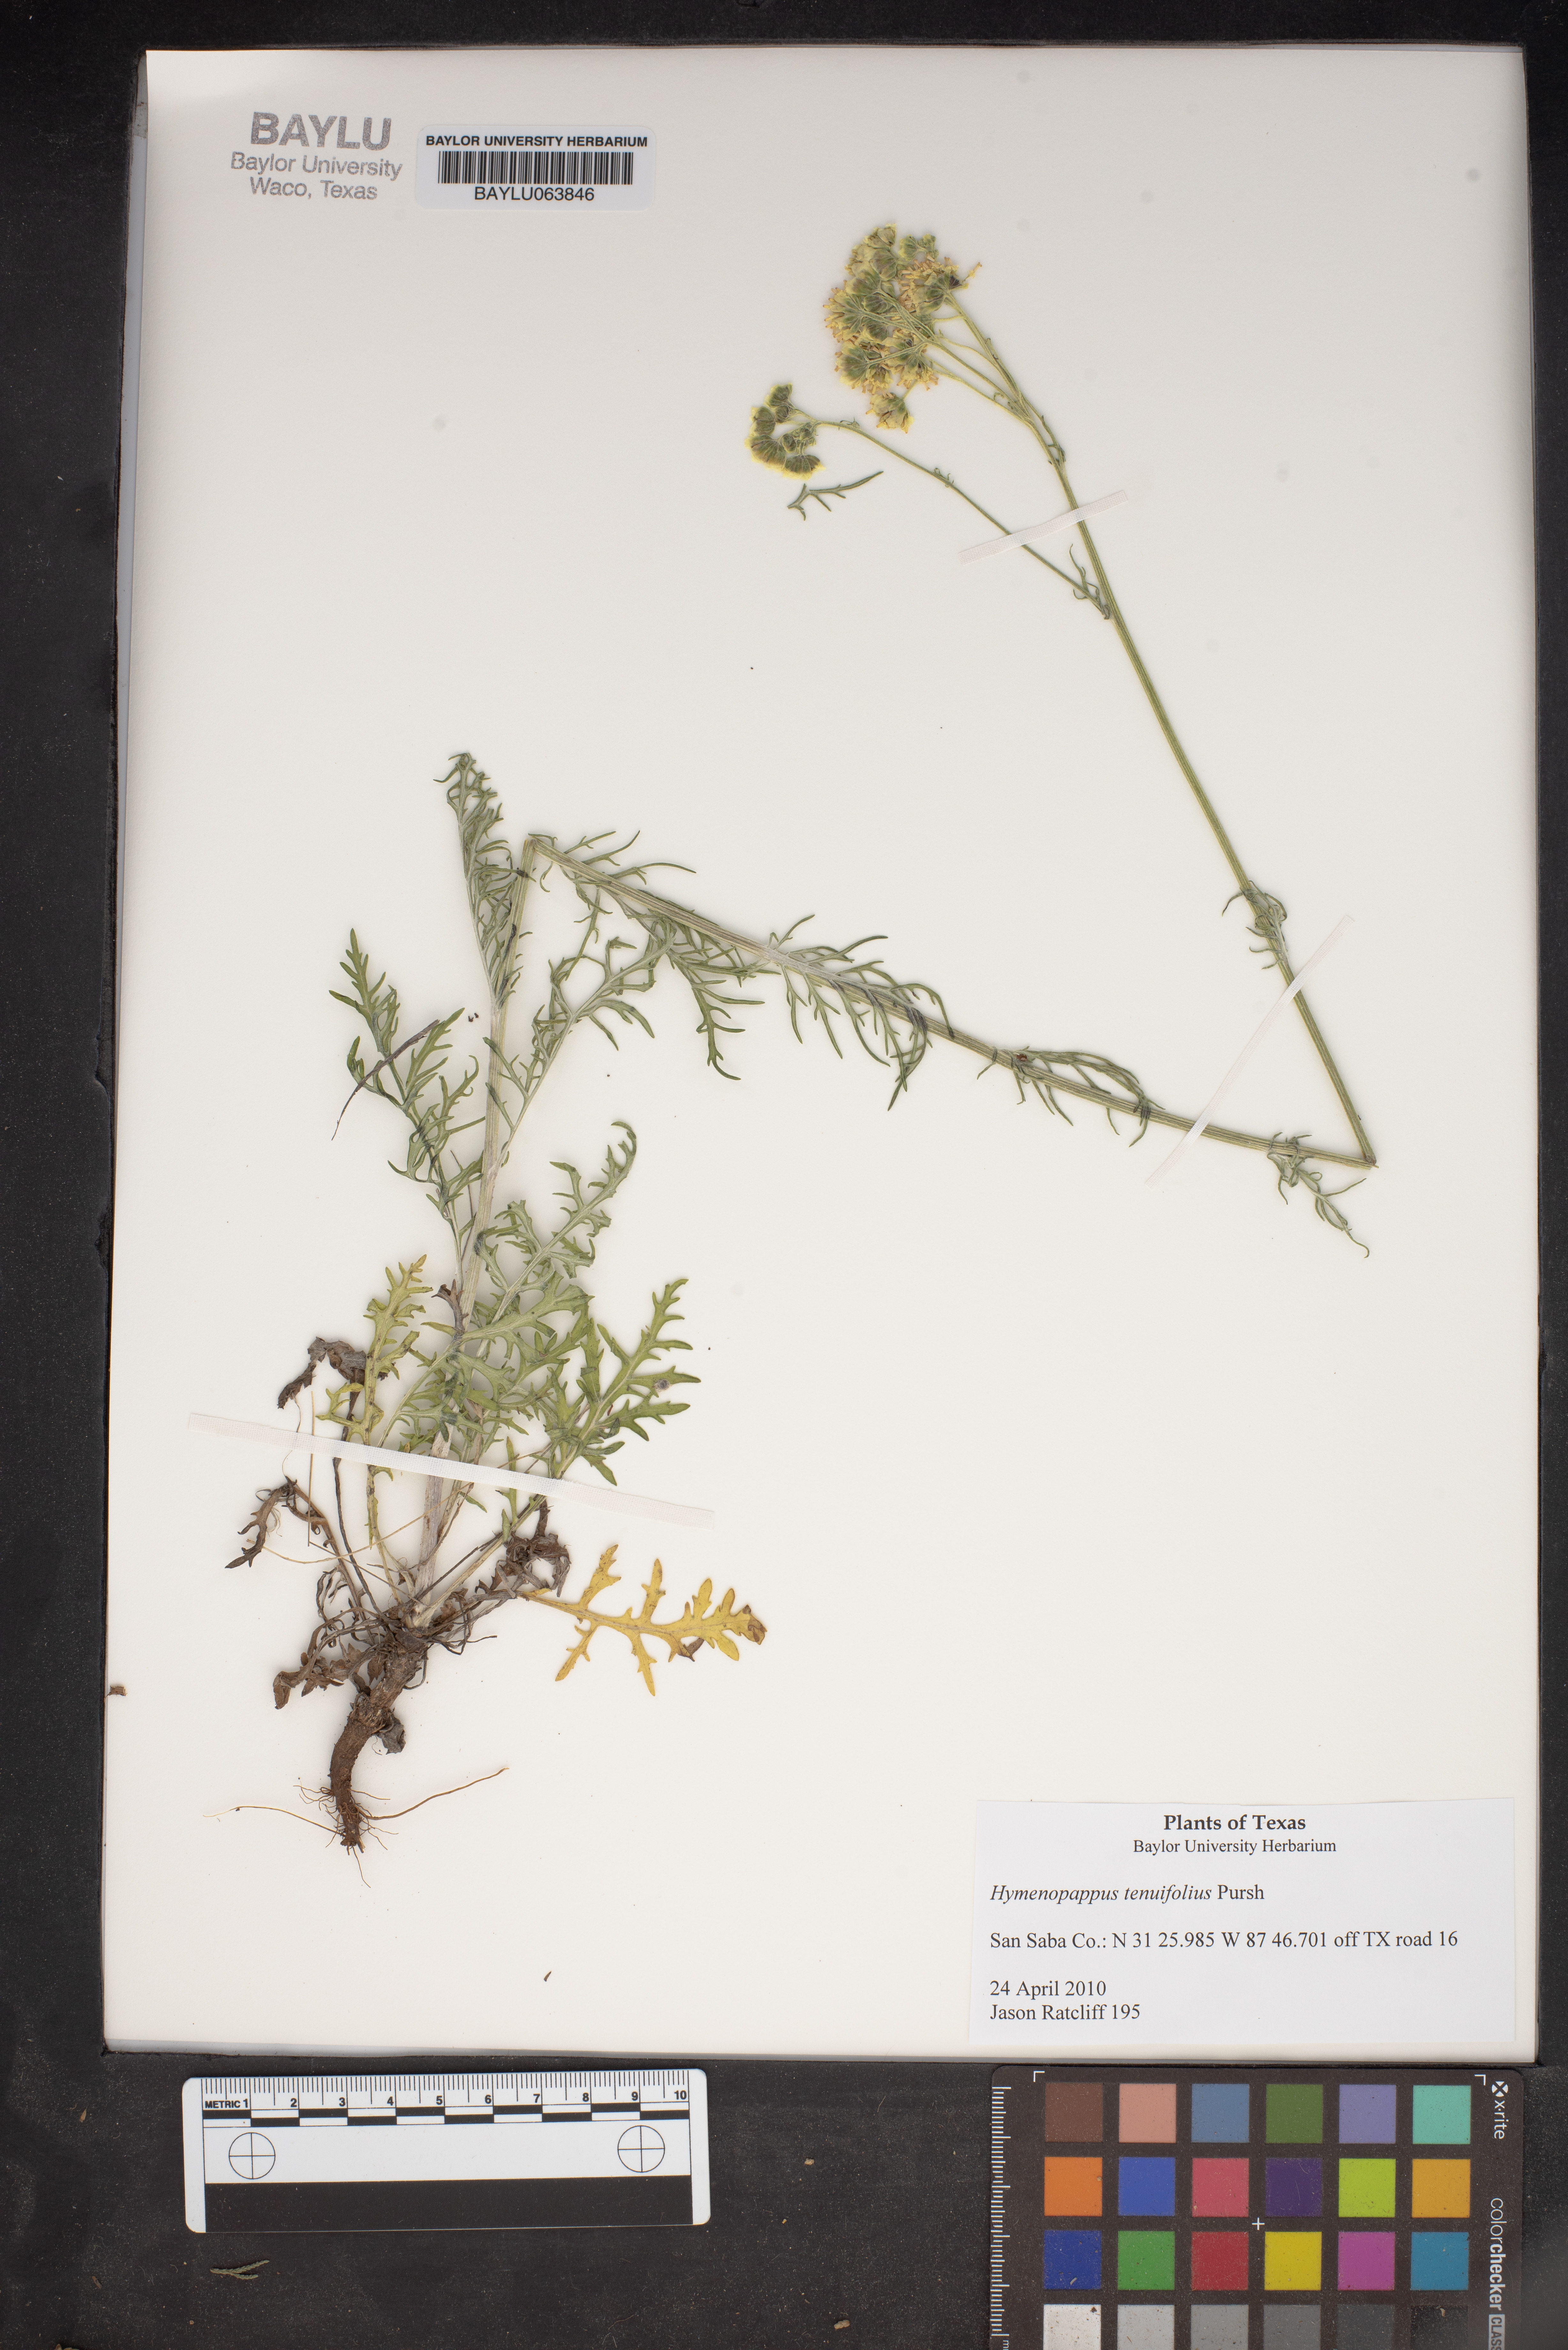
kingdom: Plantae
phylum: Tracheophyta
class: Magnoliopsida
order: Asterales
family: Asteraceae
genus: Hymenopappus
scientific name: Hymenopappus tenuifolius
